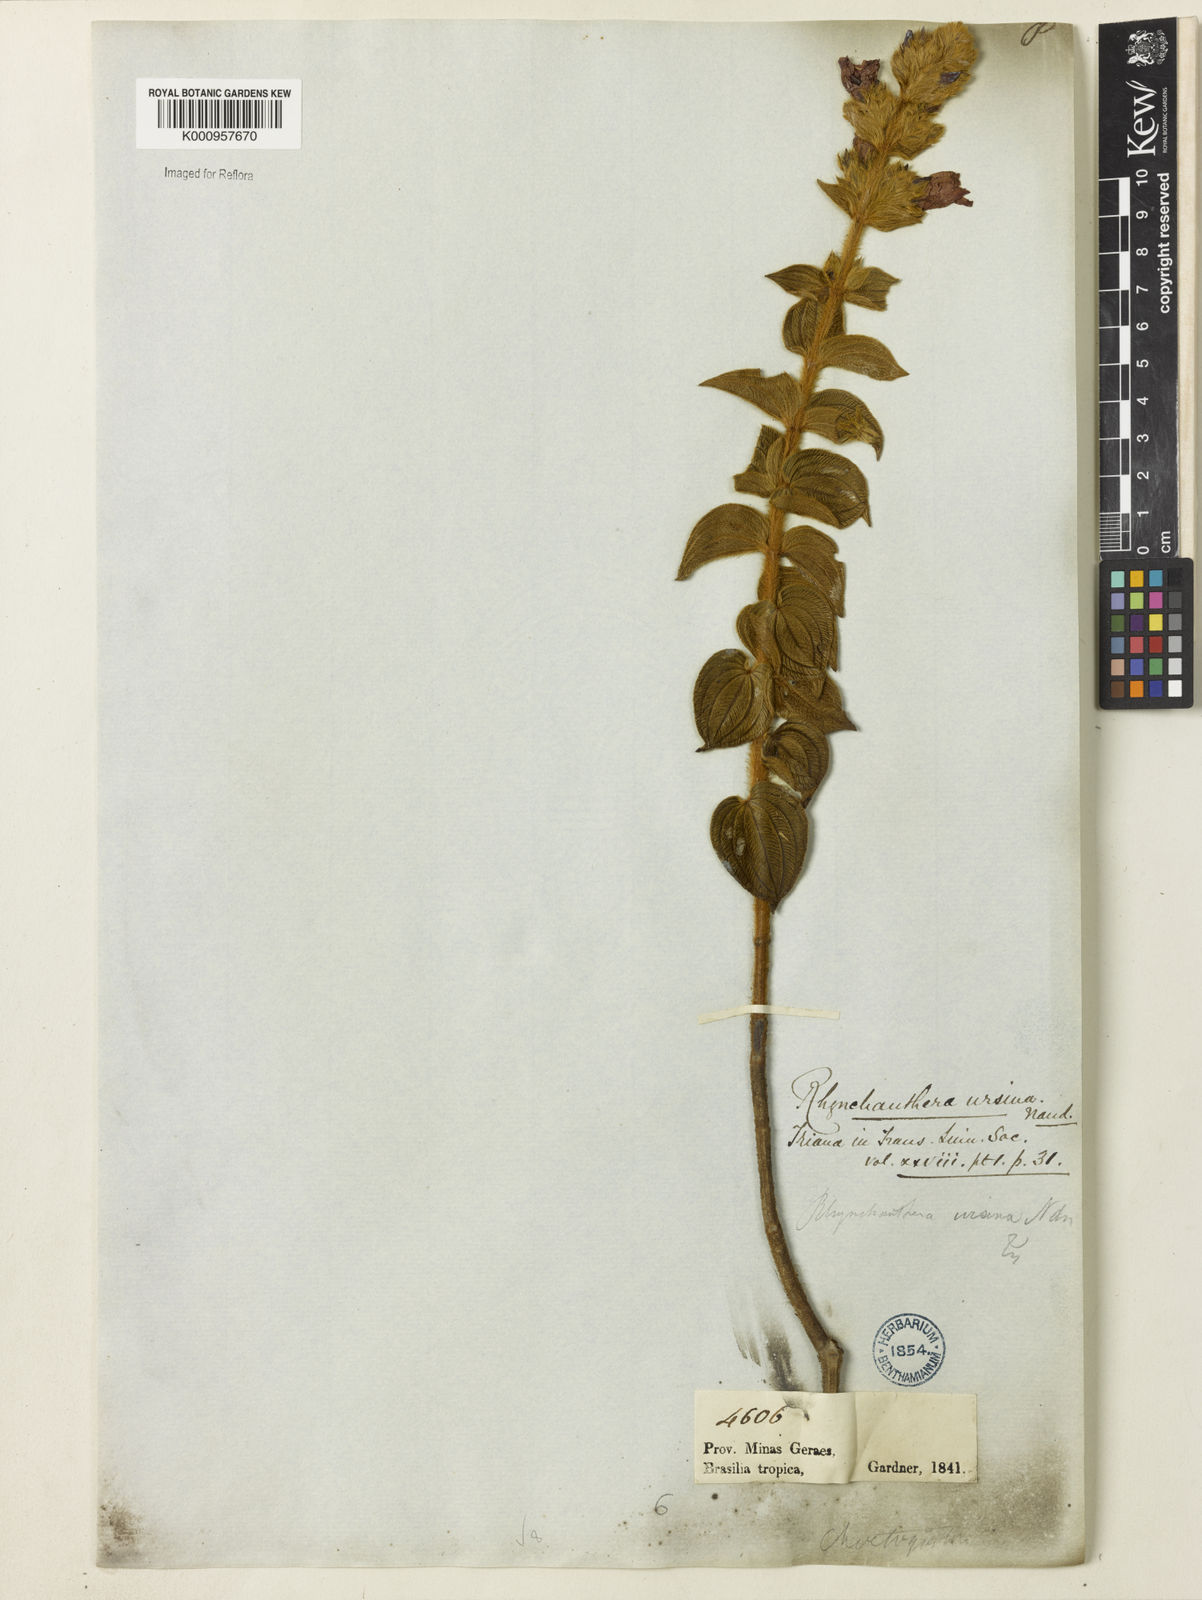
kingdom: Plantae
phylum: Tracheophyta
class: Magnoliopsida
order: Myrtales
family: Melastomataceae
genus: Rhynchanthera
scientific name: Rhynchanthera ursina
